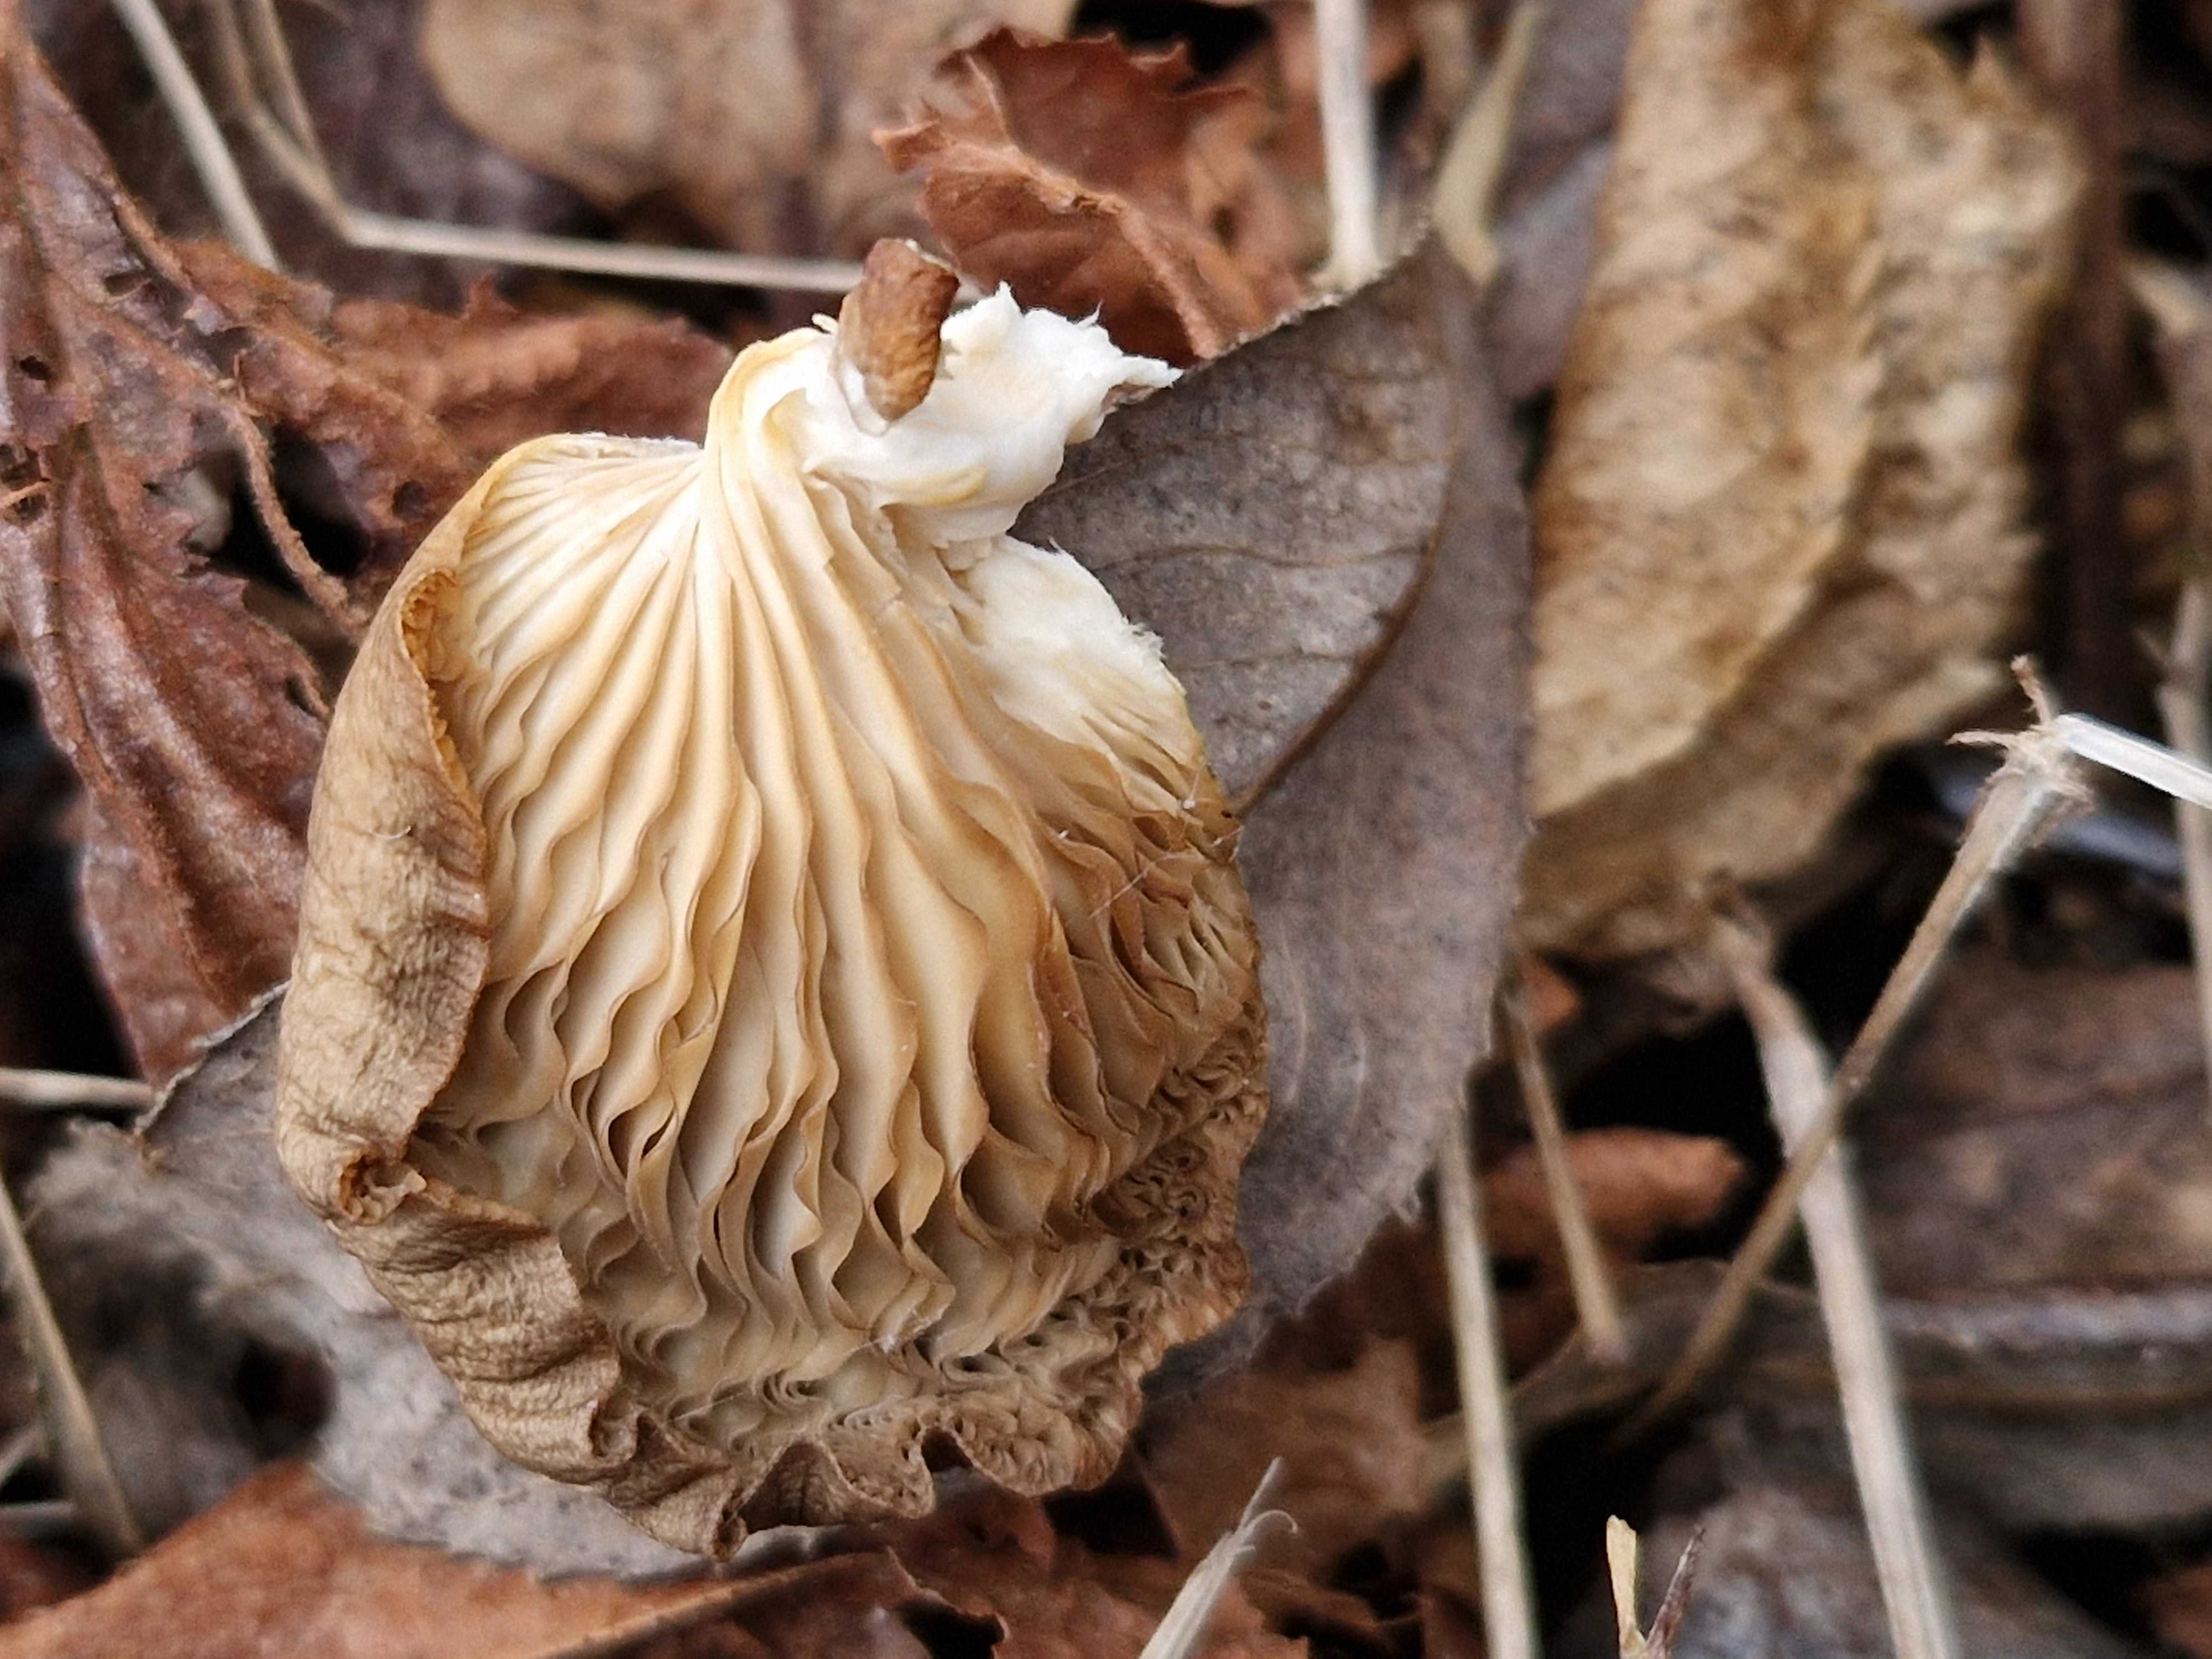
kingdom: Fungi
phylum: Basidiomycota
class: Agaricomycetes
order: Agaricales
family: Pleurotaceae
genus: Pleurotus
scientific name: Pleurotus ostreatus
